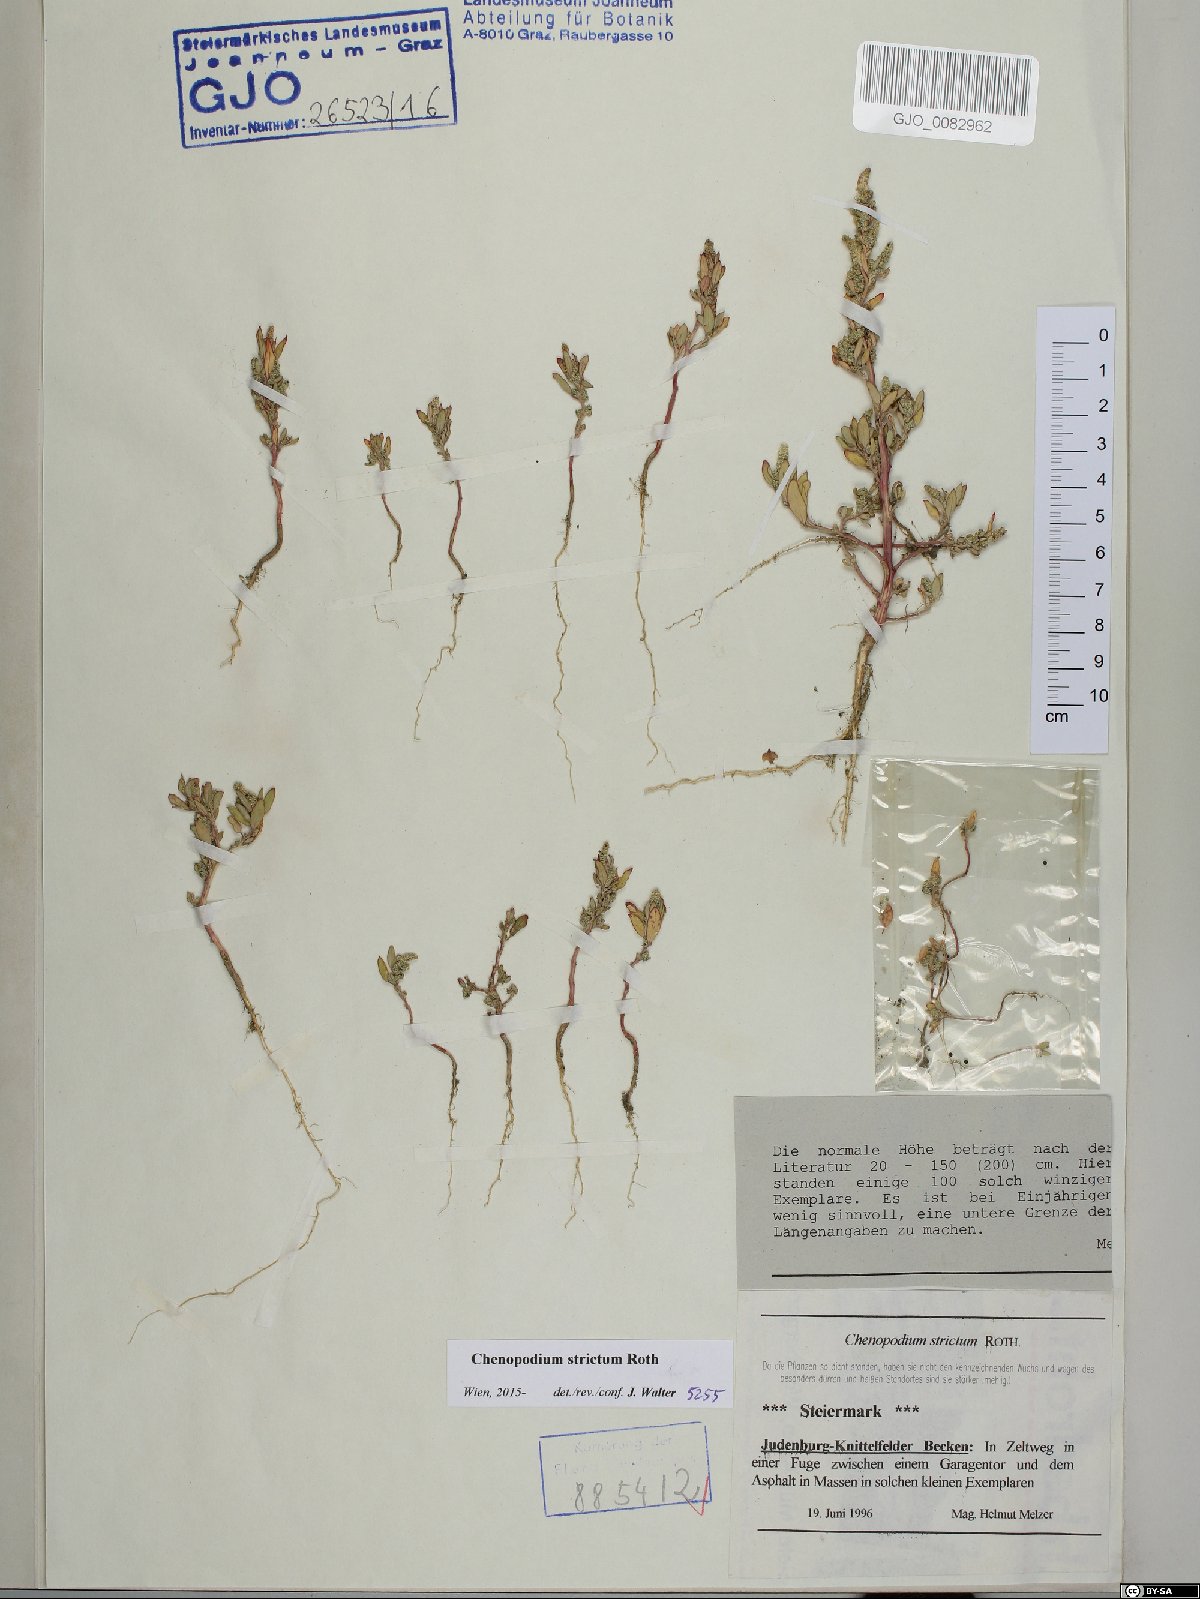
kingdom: Plantae
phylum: Tracheophyta
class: Magnoliopsida
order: Caryophyllales
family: Amaranthaceae
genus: Chenopodium
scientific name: Chenopodium album
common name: Fat-hen
